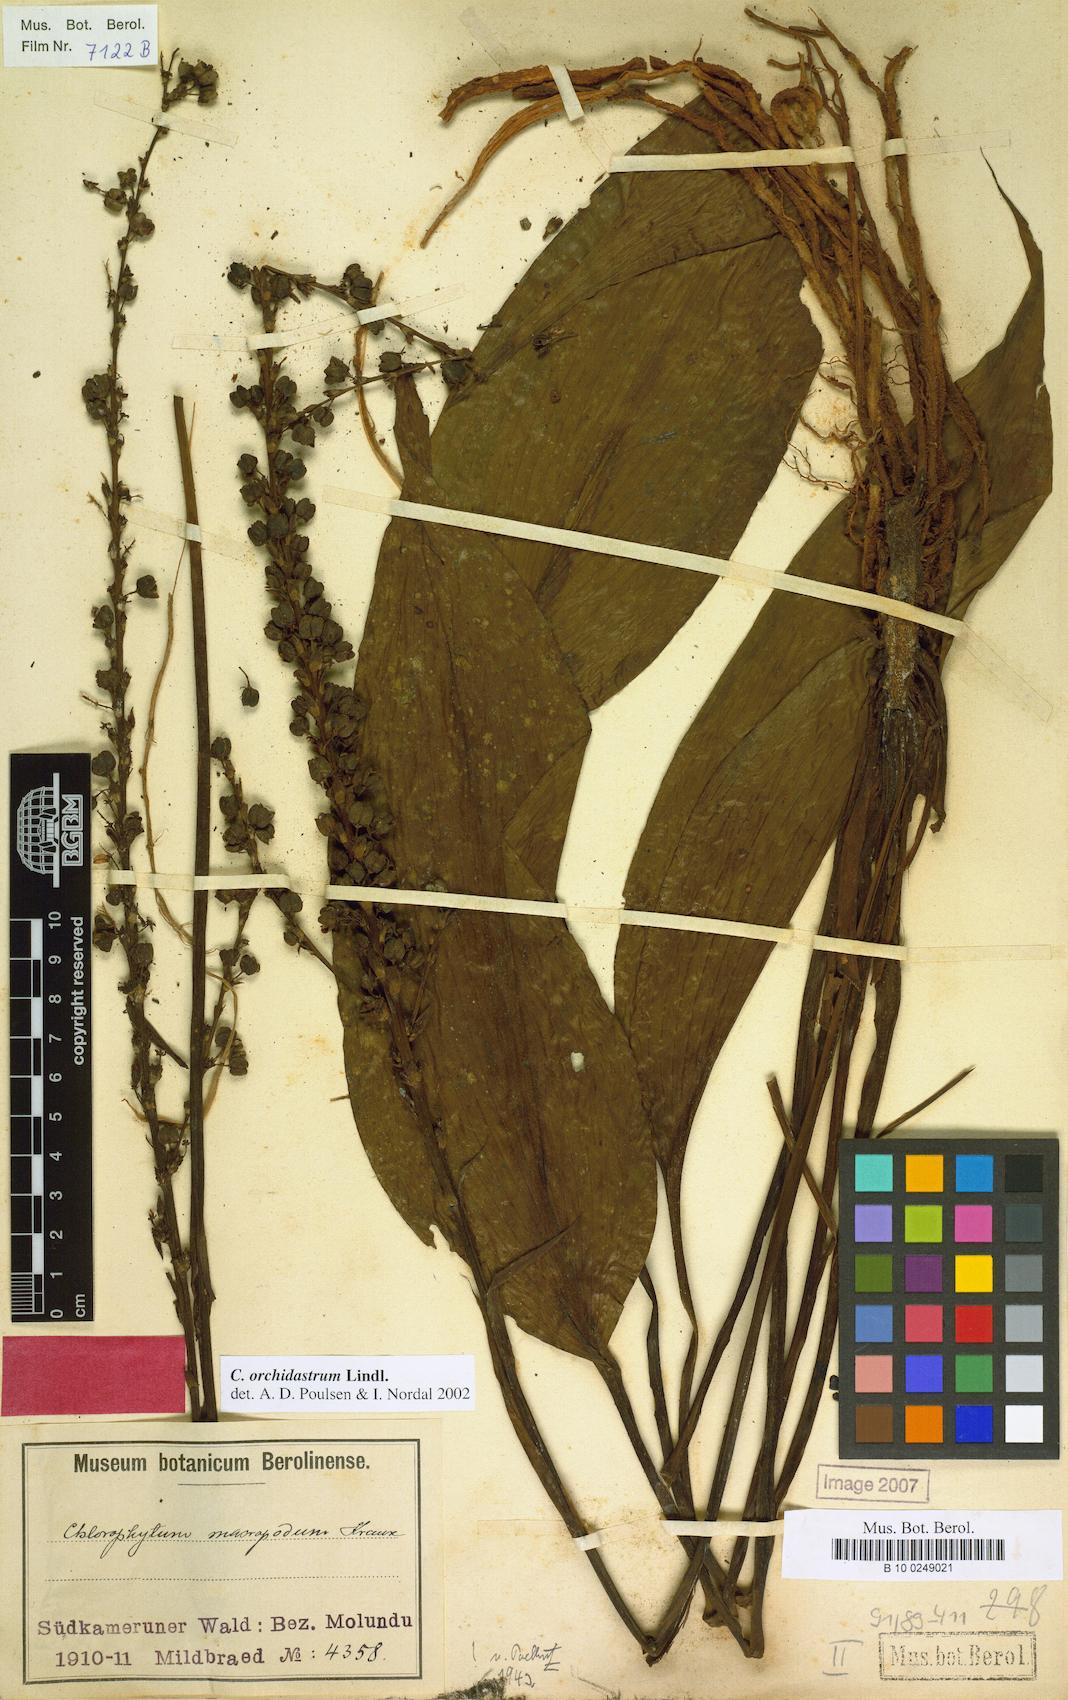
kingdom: Plantae
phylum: Tracheophyta
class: Liliopsida
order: Asparagales
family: Asparagaceae
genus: Chlorophytum
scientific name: Chlorophytum orchidastrum
